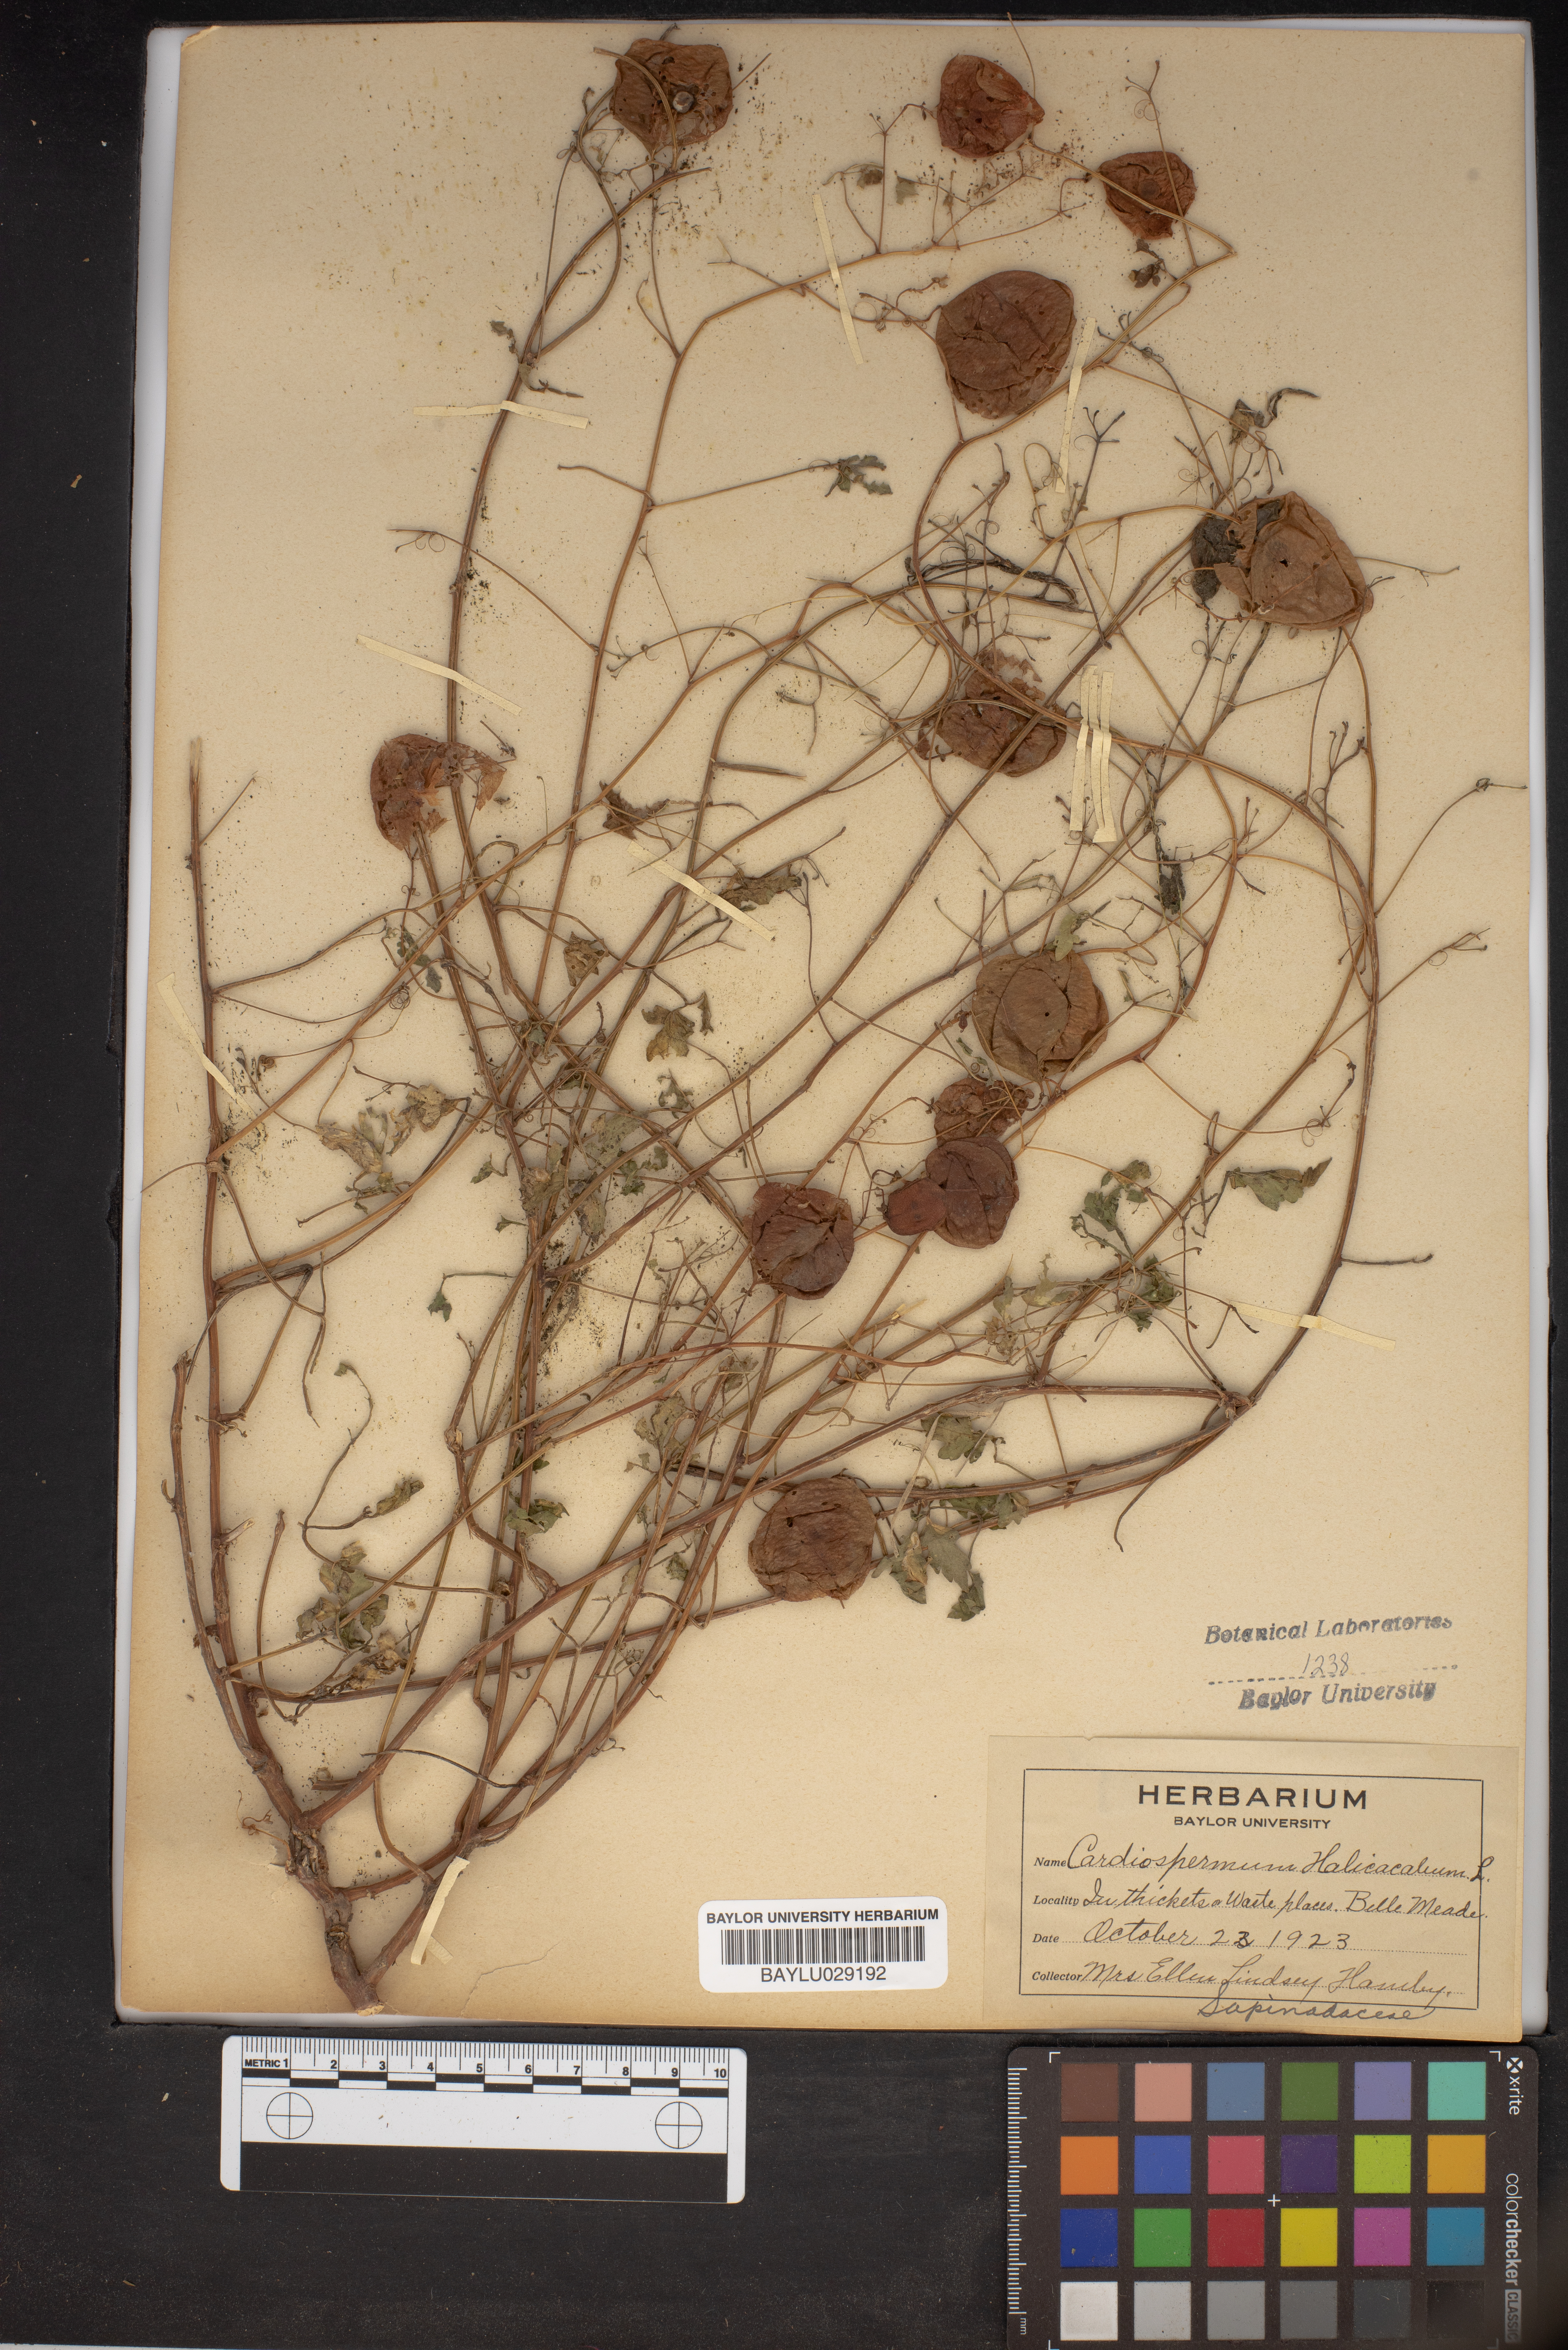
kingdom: Plantae
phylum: Tracheophyta
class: Magnoliopsida
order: Sapindales
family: Sapindaceae
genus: Cardiospermum
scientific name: Cardiospermum halicacabum
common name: Balloon vine
